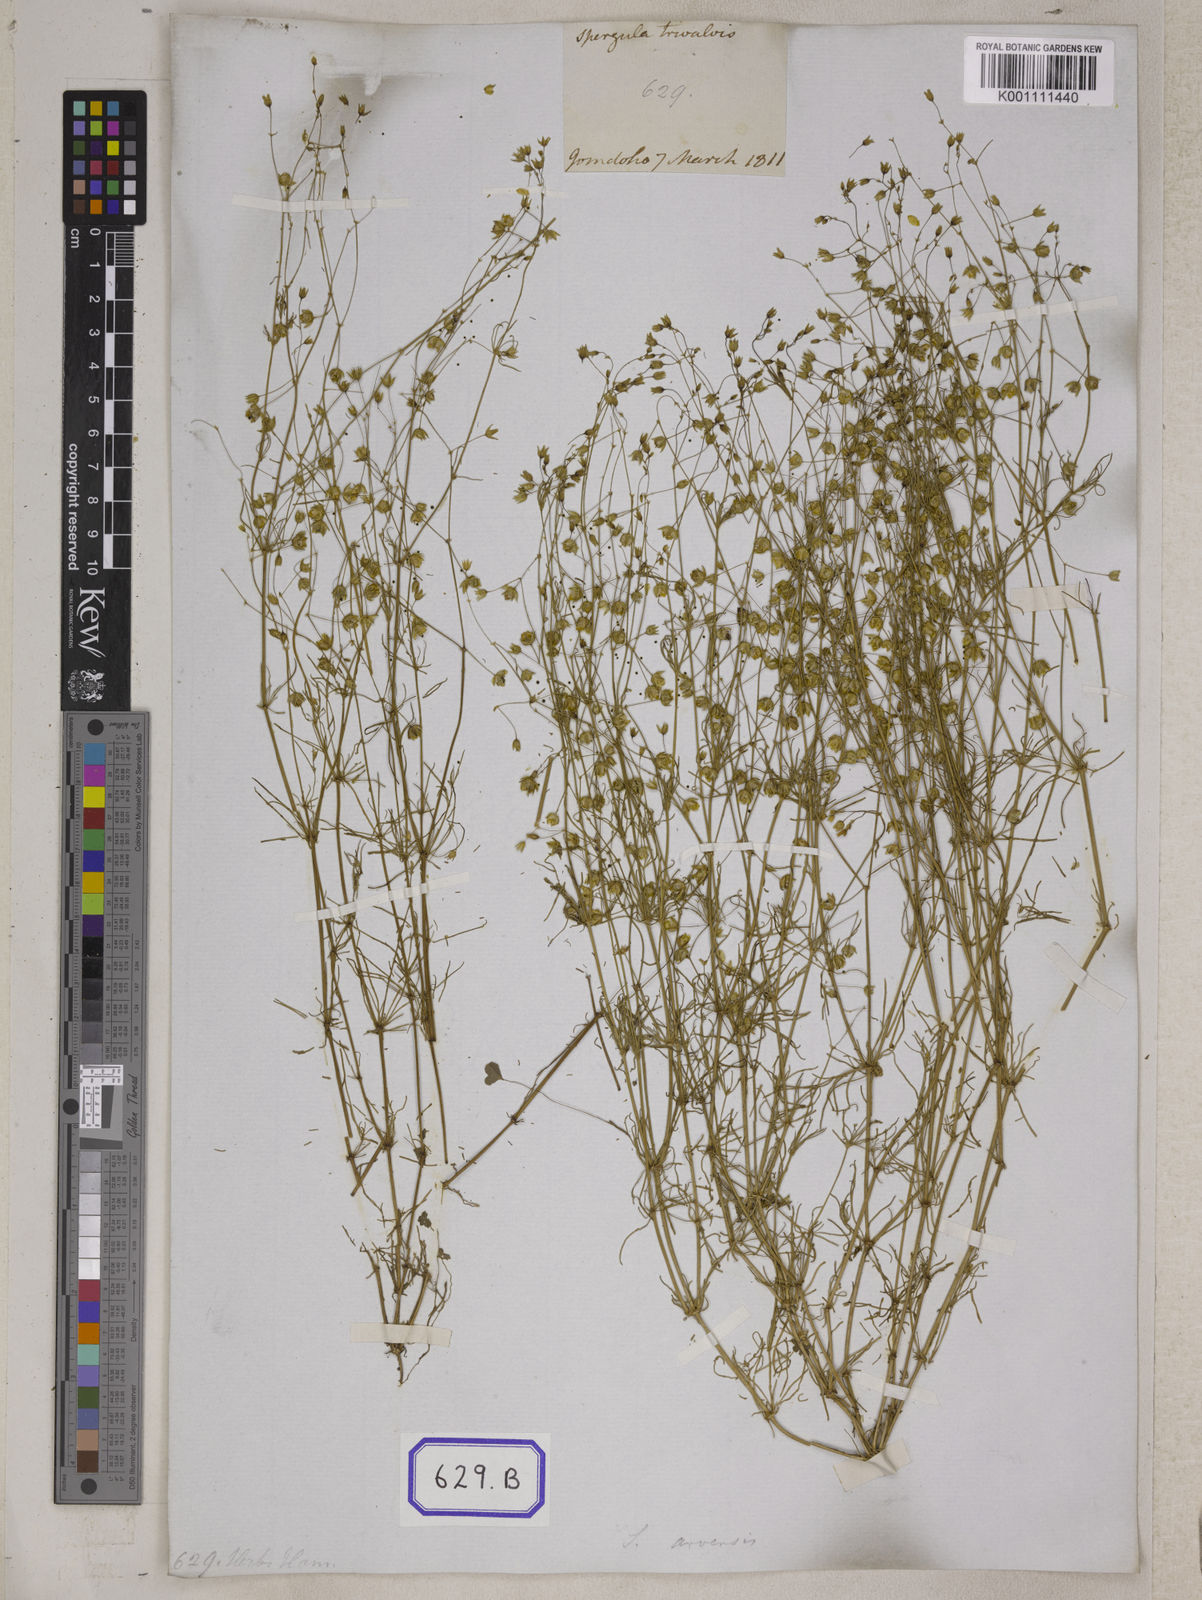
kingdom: Plantae
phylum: Tracheophyta
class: Magnoliopsida
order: Caryophyllales
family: Caryophyllaceae
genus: Spergula
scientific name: Spergula pentandra
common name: Wingstem spurry
